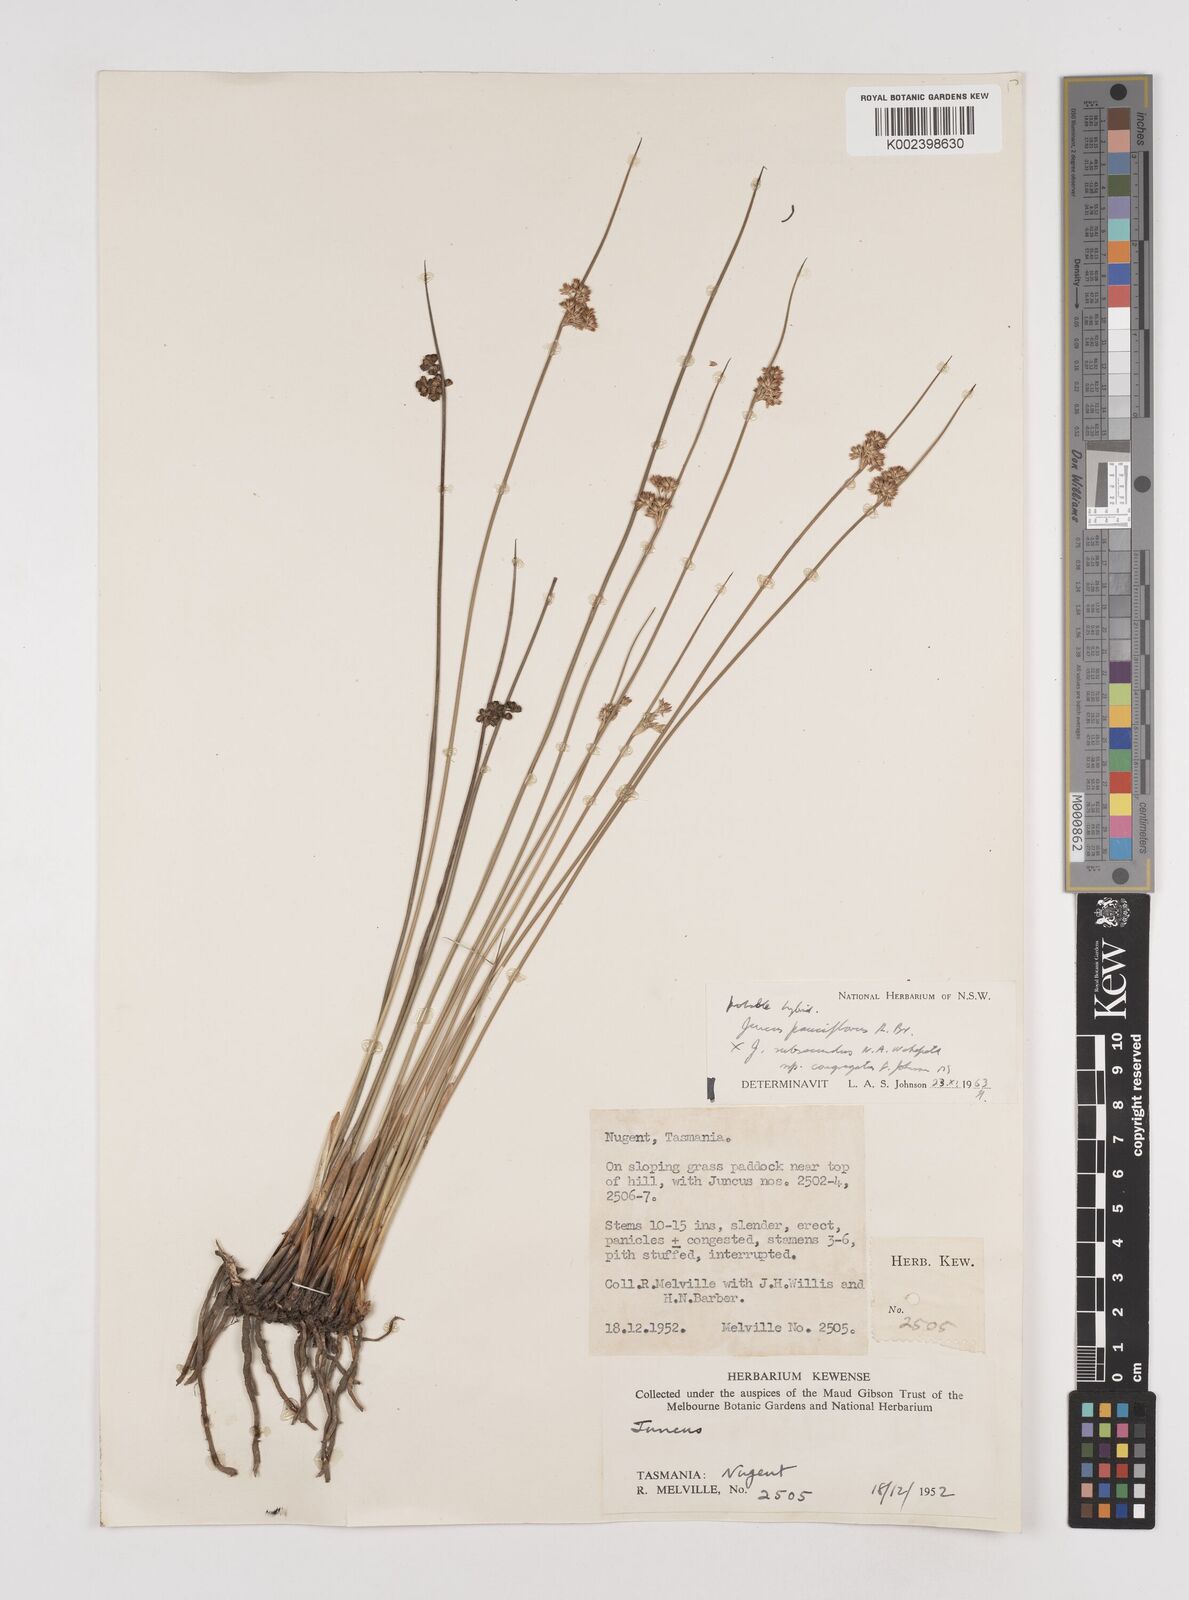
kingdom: Plantae
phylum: Tracheophyta
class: Liliopsida
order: Poales
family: Juncaceae
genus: Juncus
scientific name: Juncus pauciflorus
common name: Loose-flowered rush
